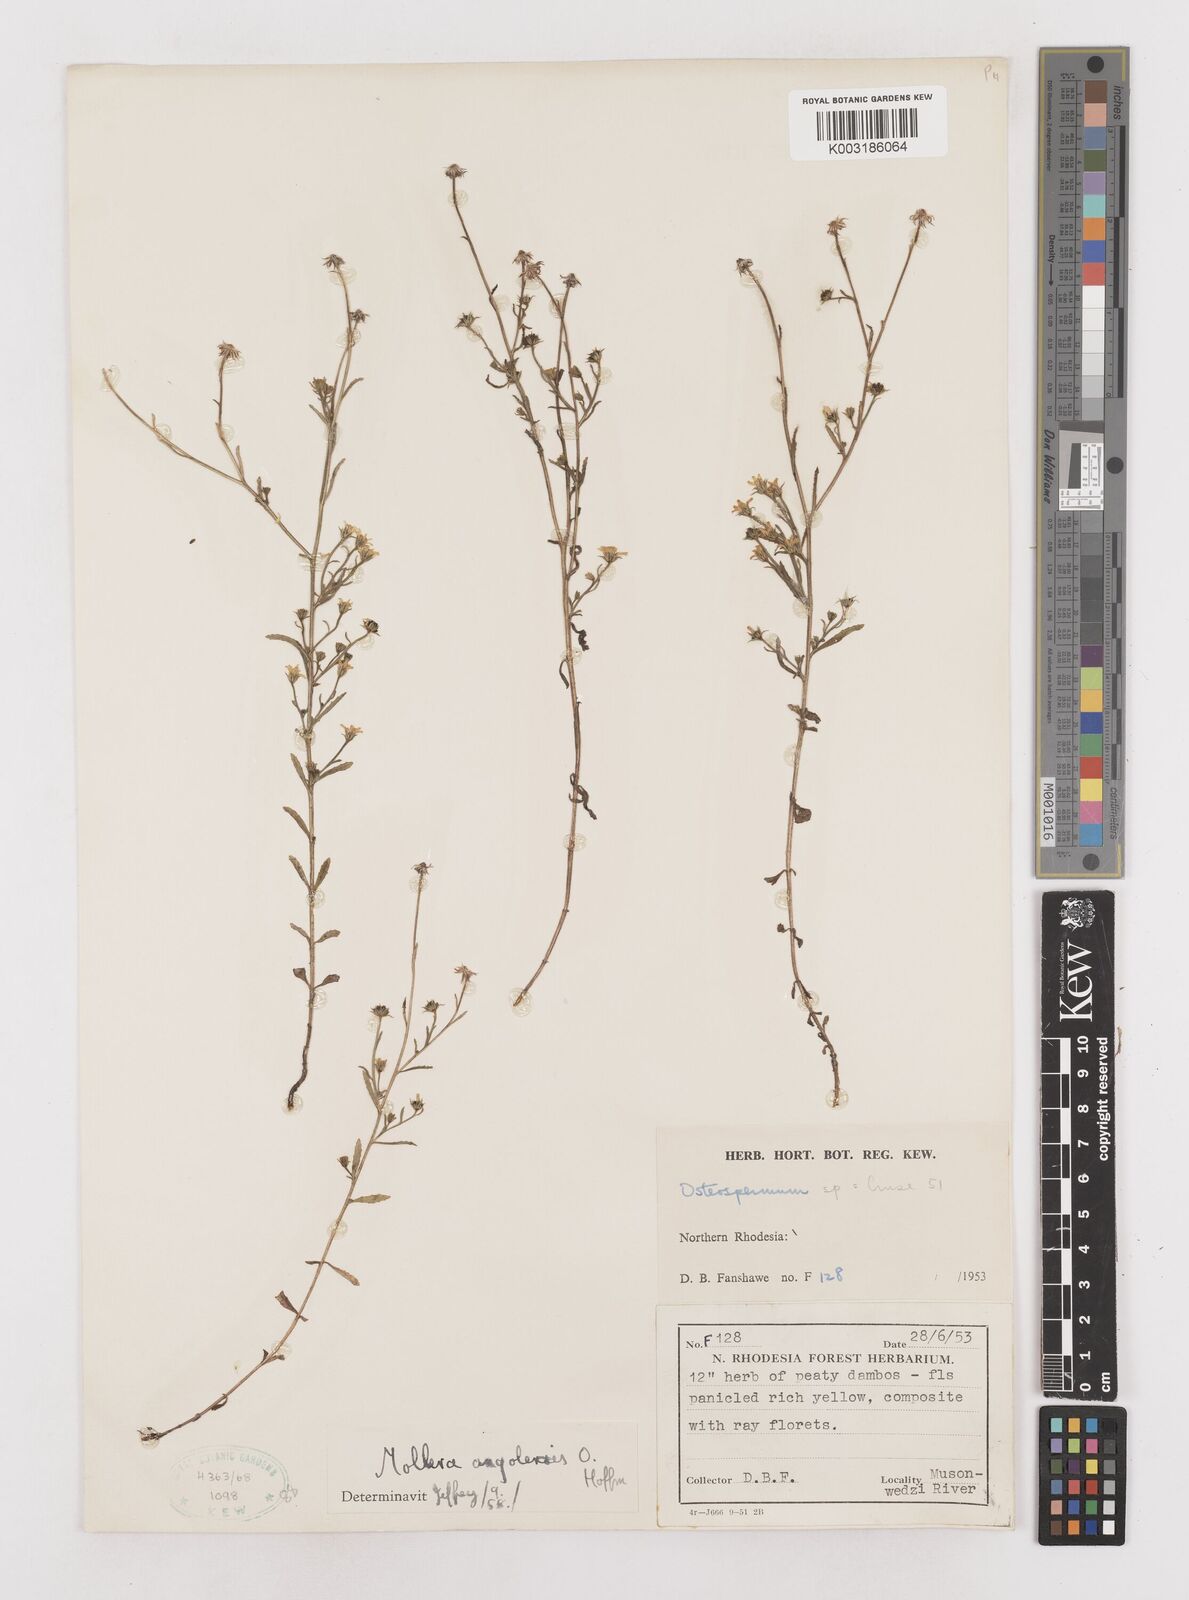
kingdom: Plantae
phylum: Tracheophyta
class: Magnoliopsida
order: Asterales
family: Asteraceae
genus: Calostephane
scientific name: Calostephane angolensis
